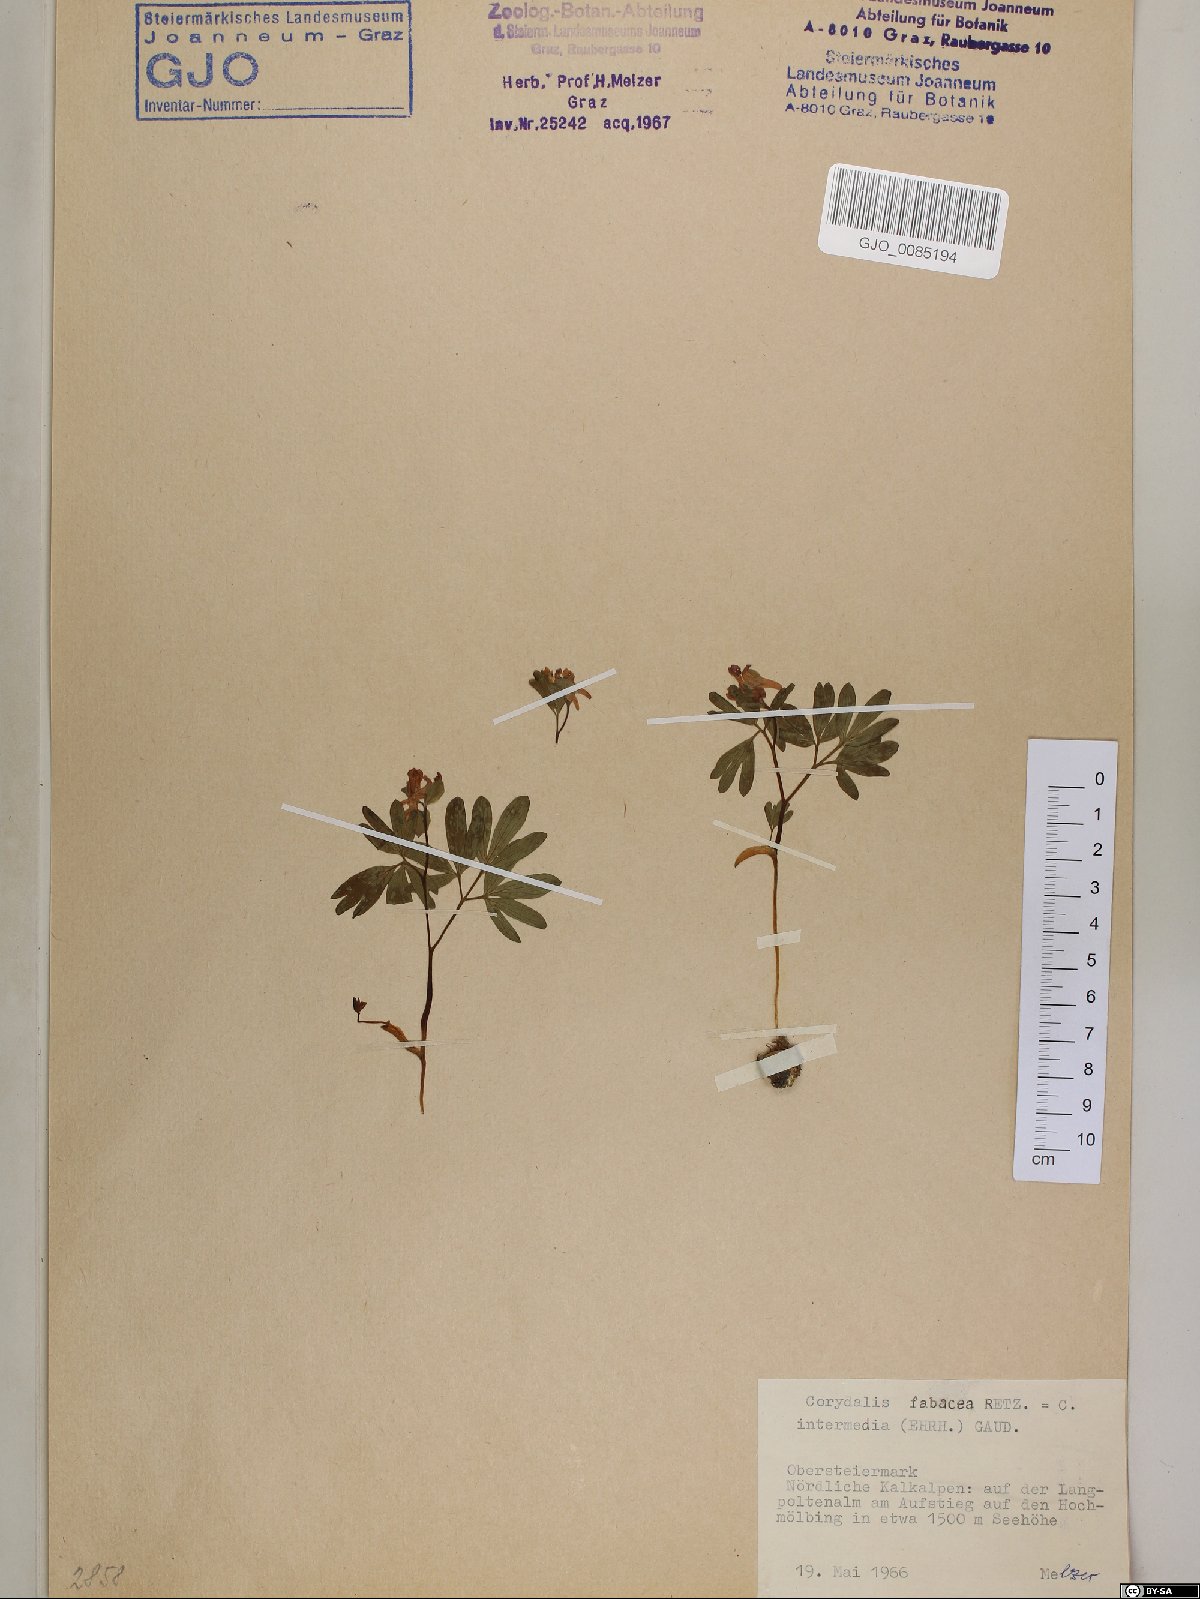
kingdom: Plantae
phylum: Tracheophyta
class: Magnoliopsida
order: Ranunculales
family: Papaveraceae
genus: Corydalis
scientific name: Corydalis intermedia
